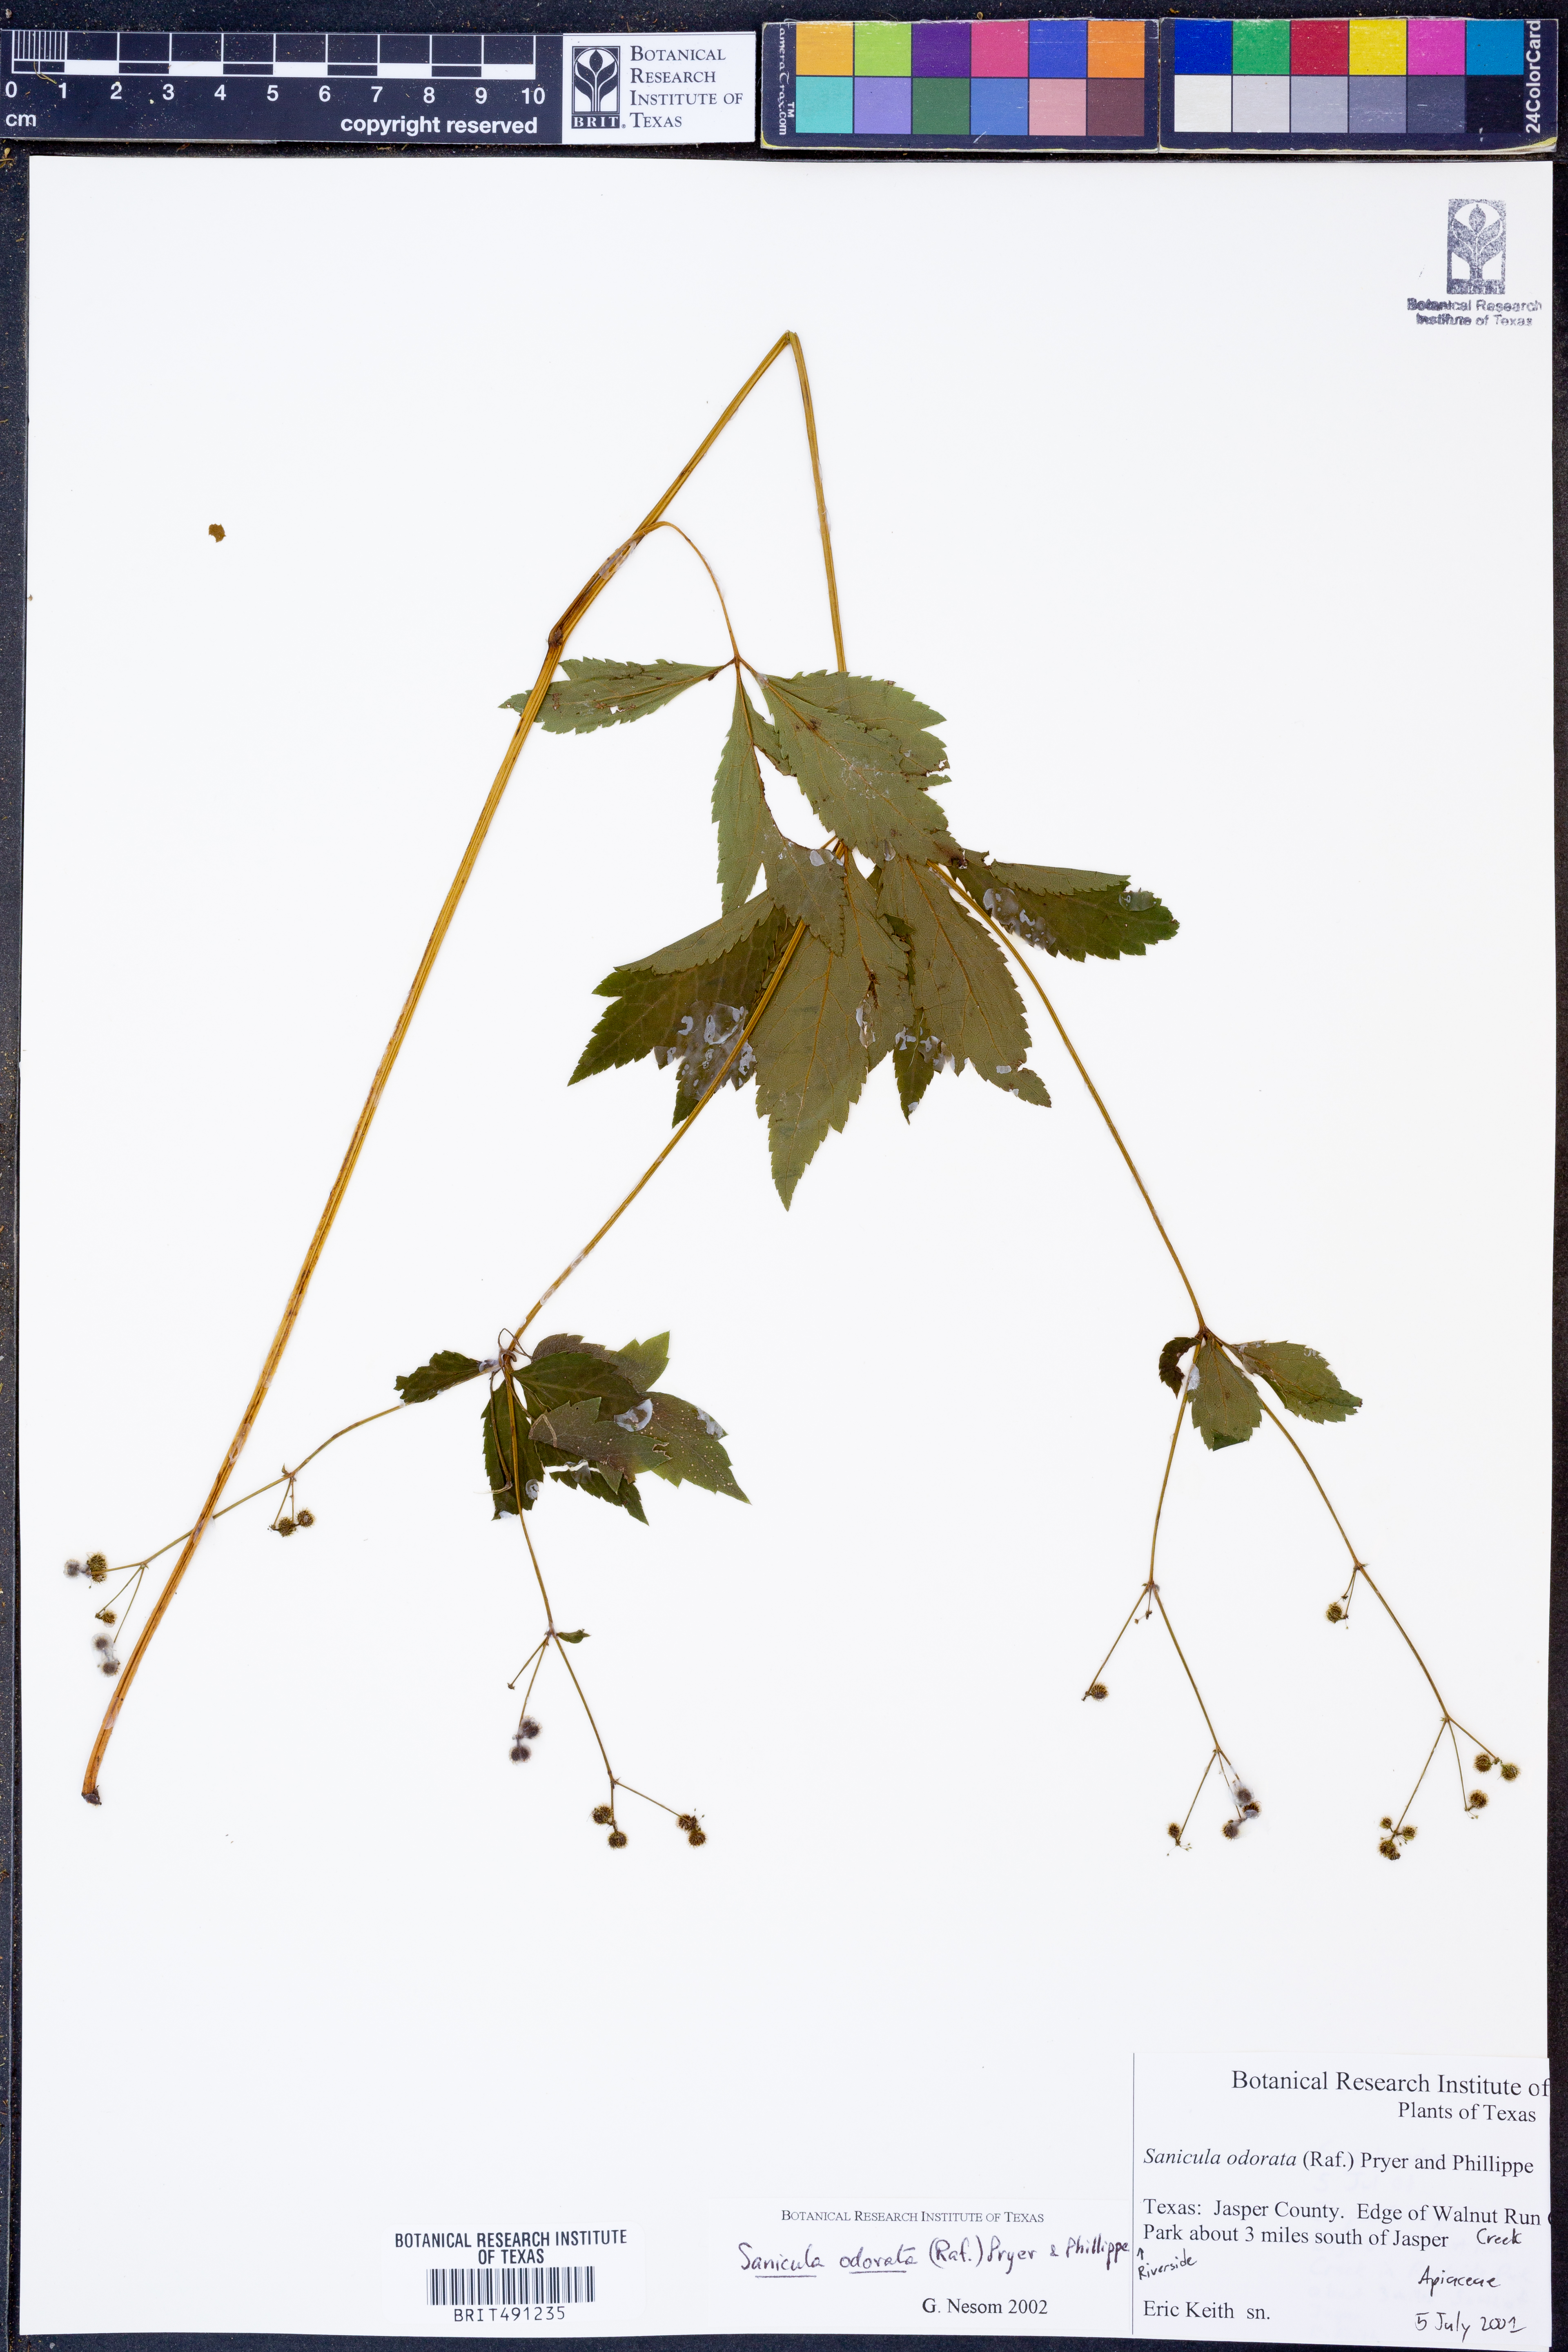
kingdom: Plantae
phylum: Tracheophyta
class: Magnoliopsida
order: Apiales
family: Apiaceae
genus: Sanicula
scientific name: Sanicula odorata
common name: Cluster sanicle
